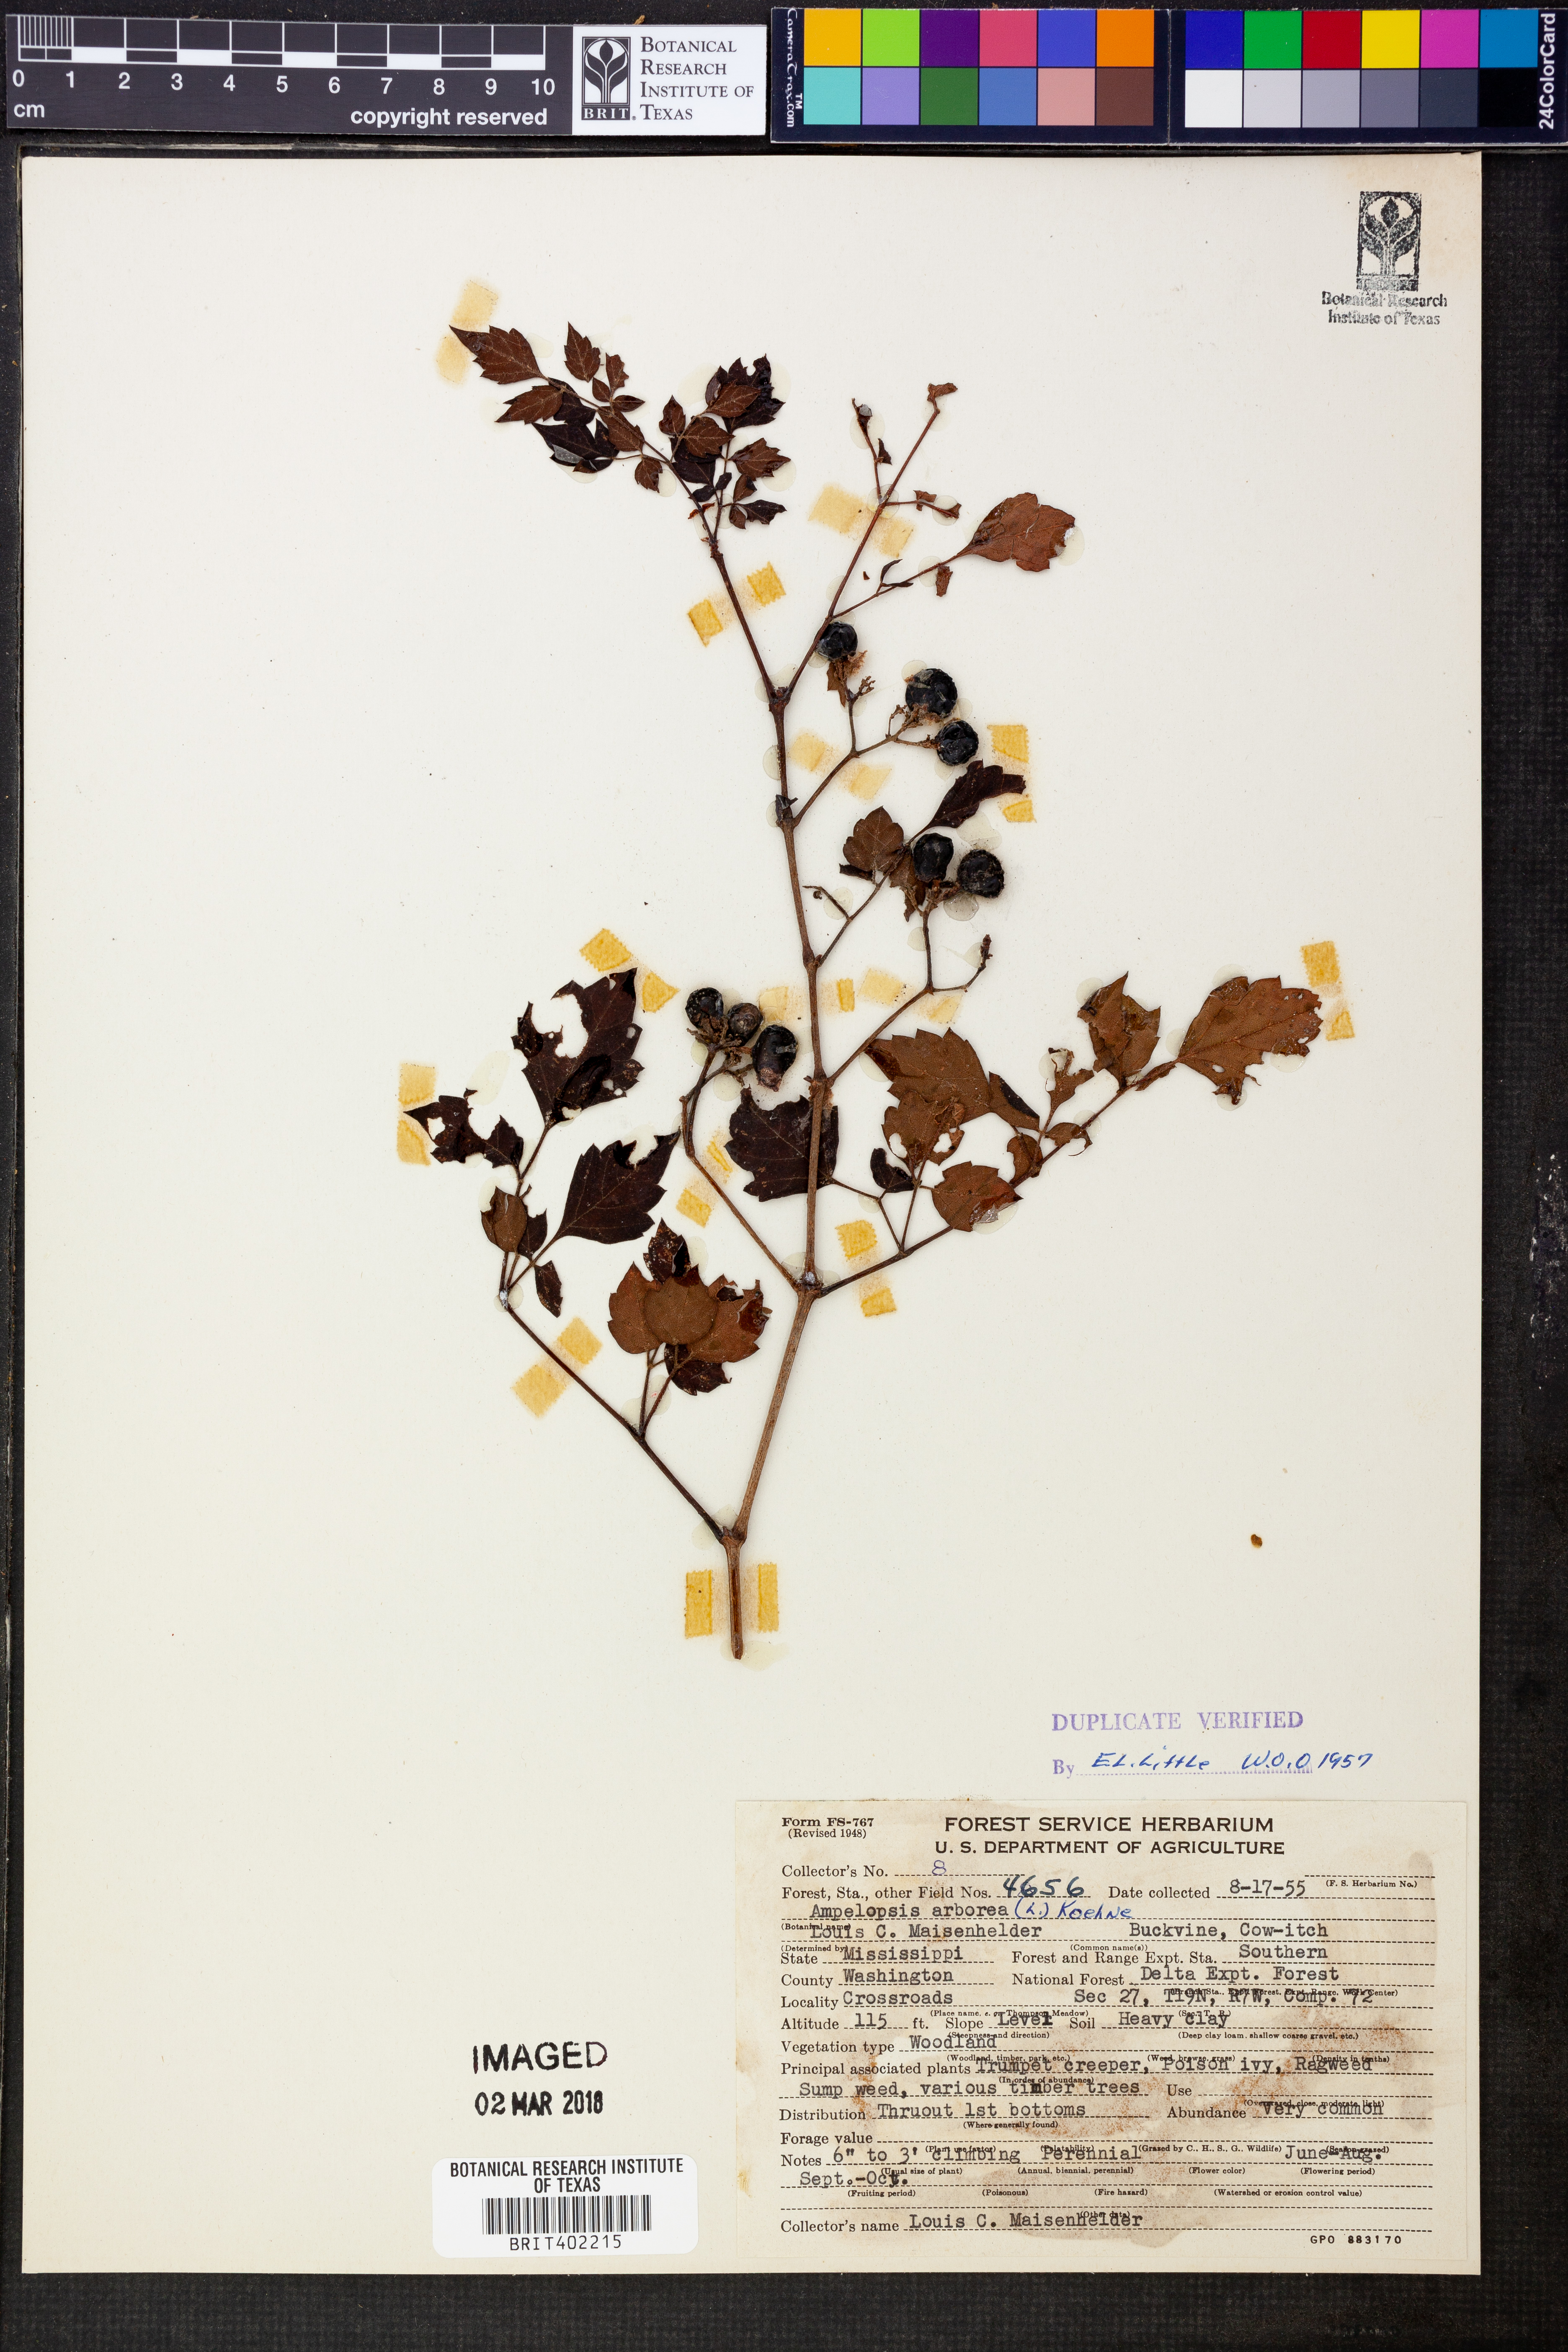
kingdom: Plantae
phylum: Tracheophyta
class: Magnoliopsida
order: Vitales
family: Vitaceae
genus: Nekemias
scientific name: Nekemias arborea
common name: Peppervine
